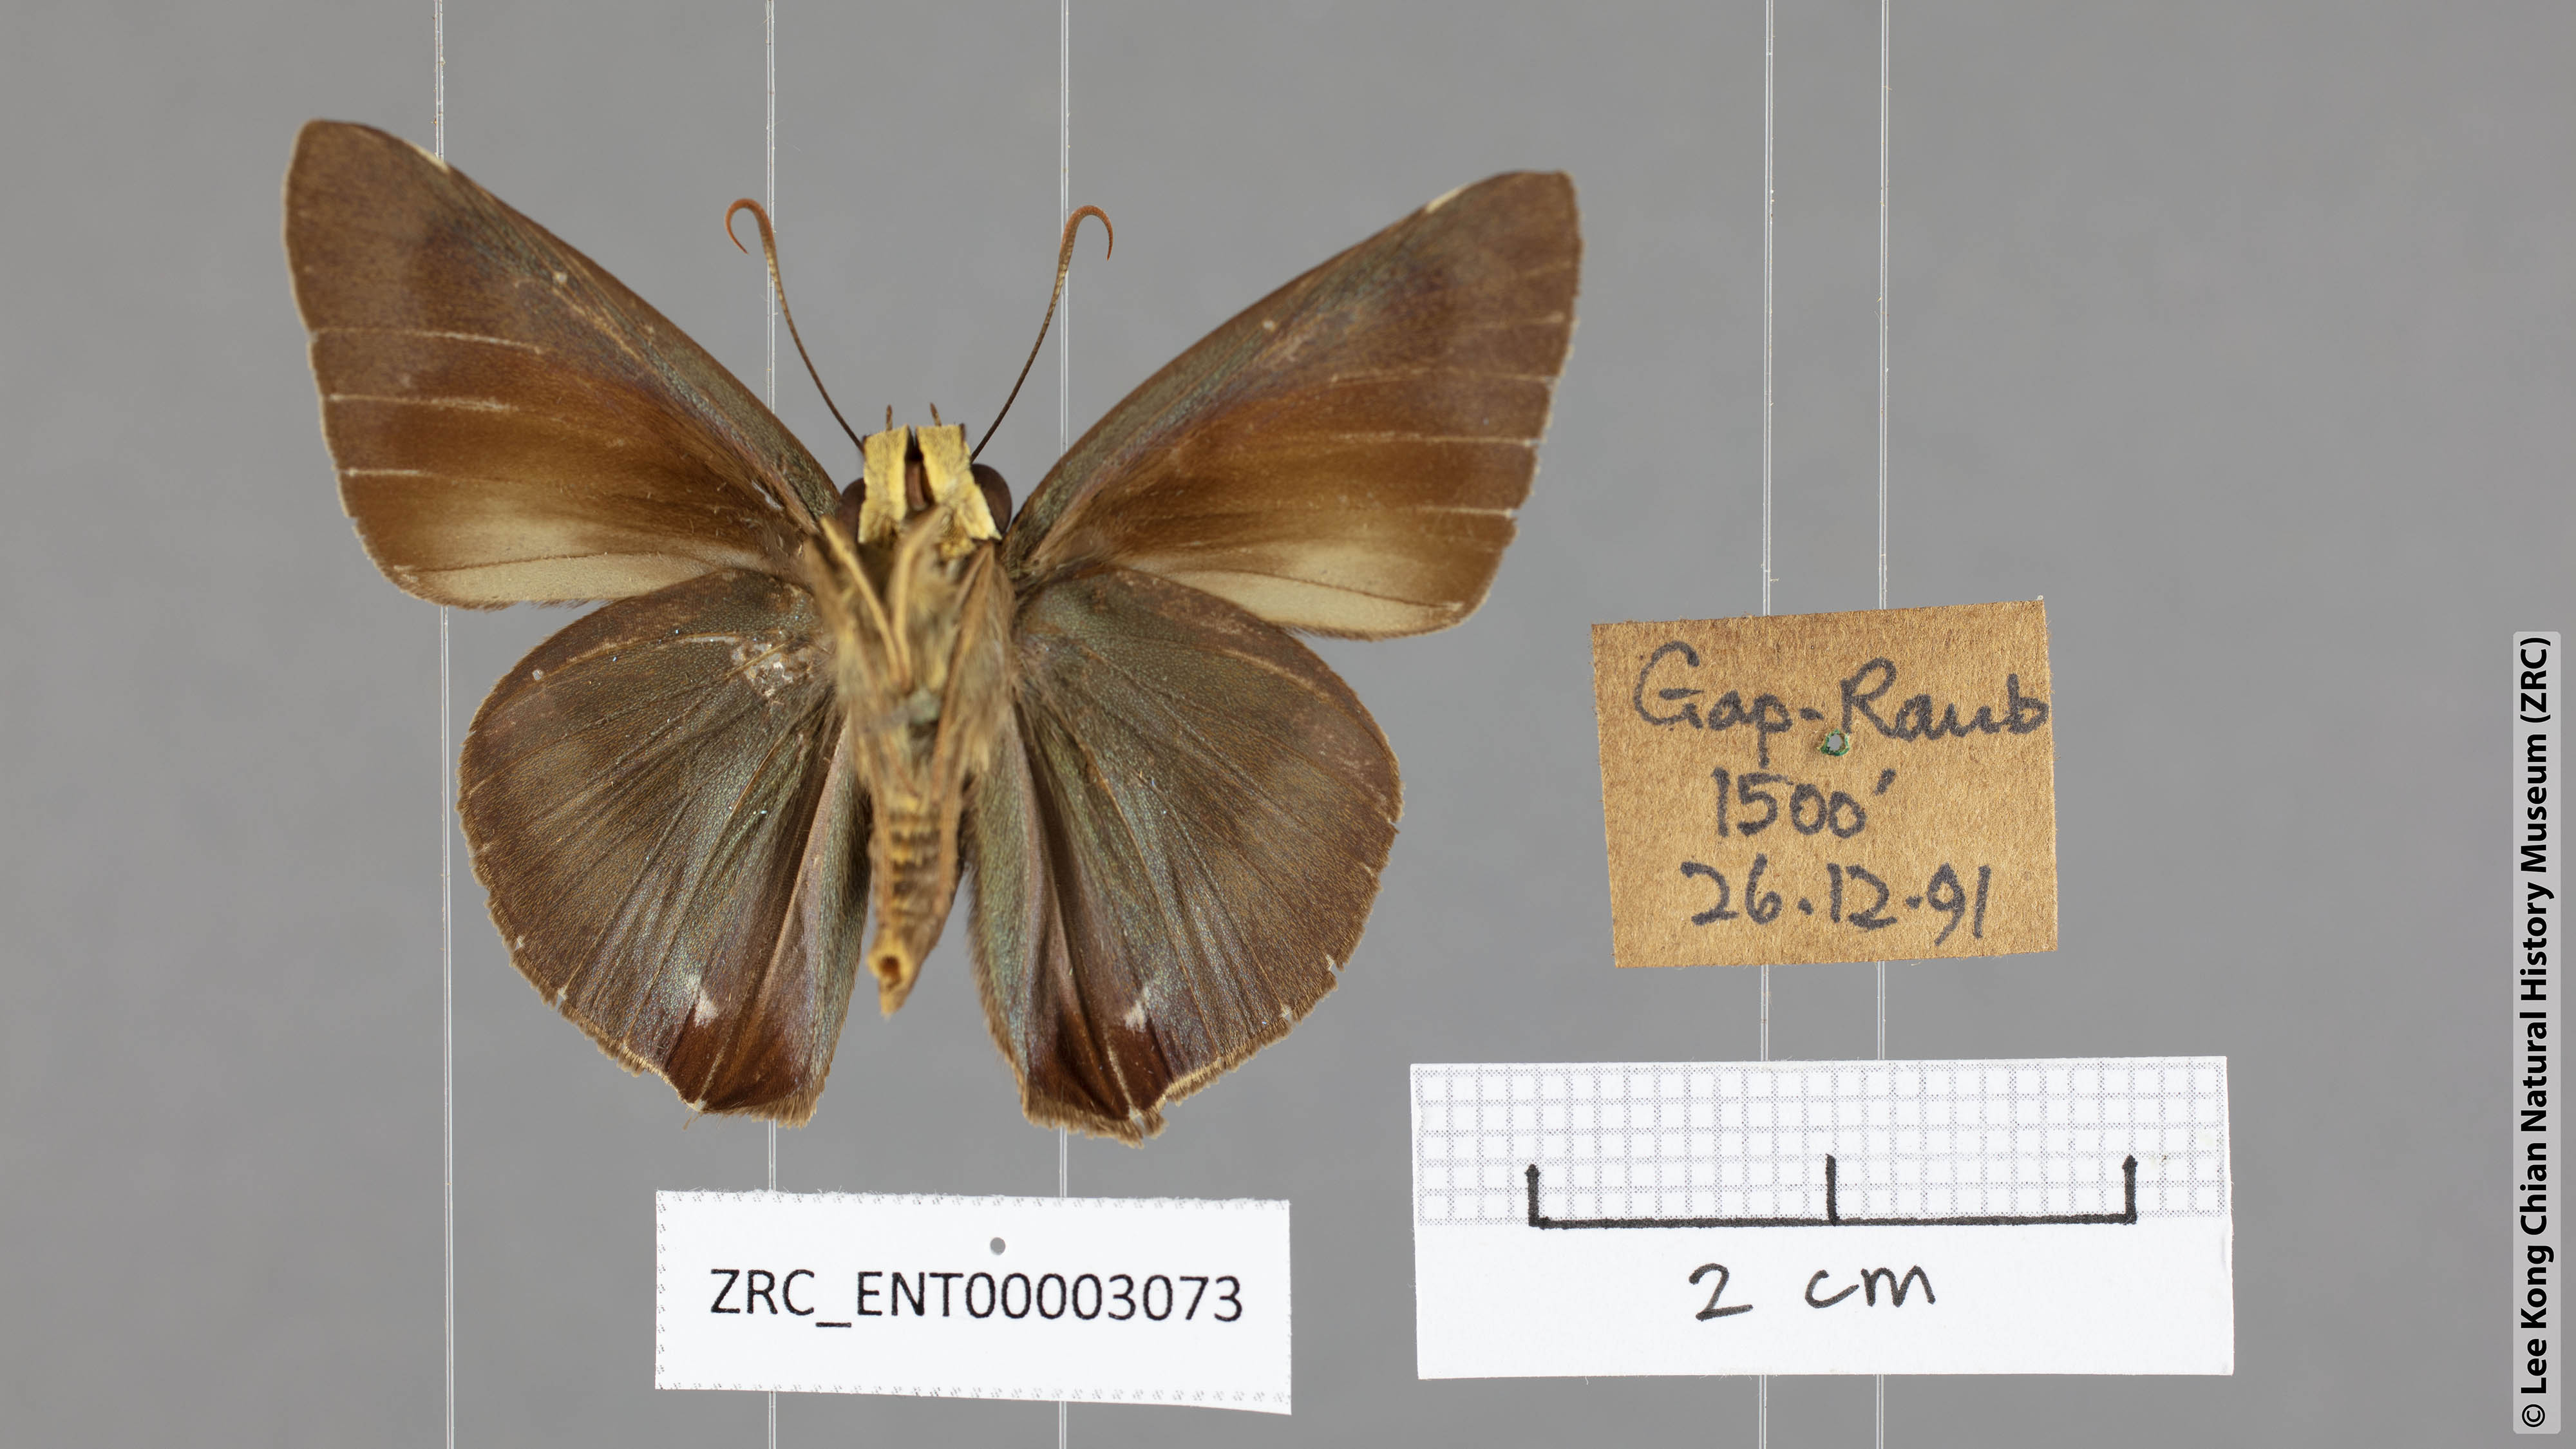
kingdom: Animalia
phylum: Arthropoda
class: Insecta
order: Lepidoptera
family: Hesperiidae
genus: Hasora
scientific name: Hasora salanga
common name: Black-tailed awl
